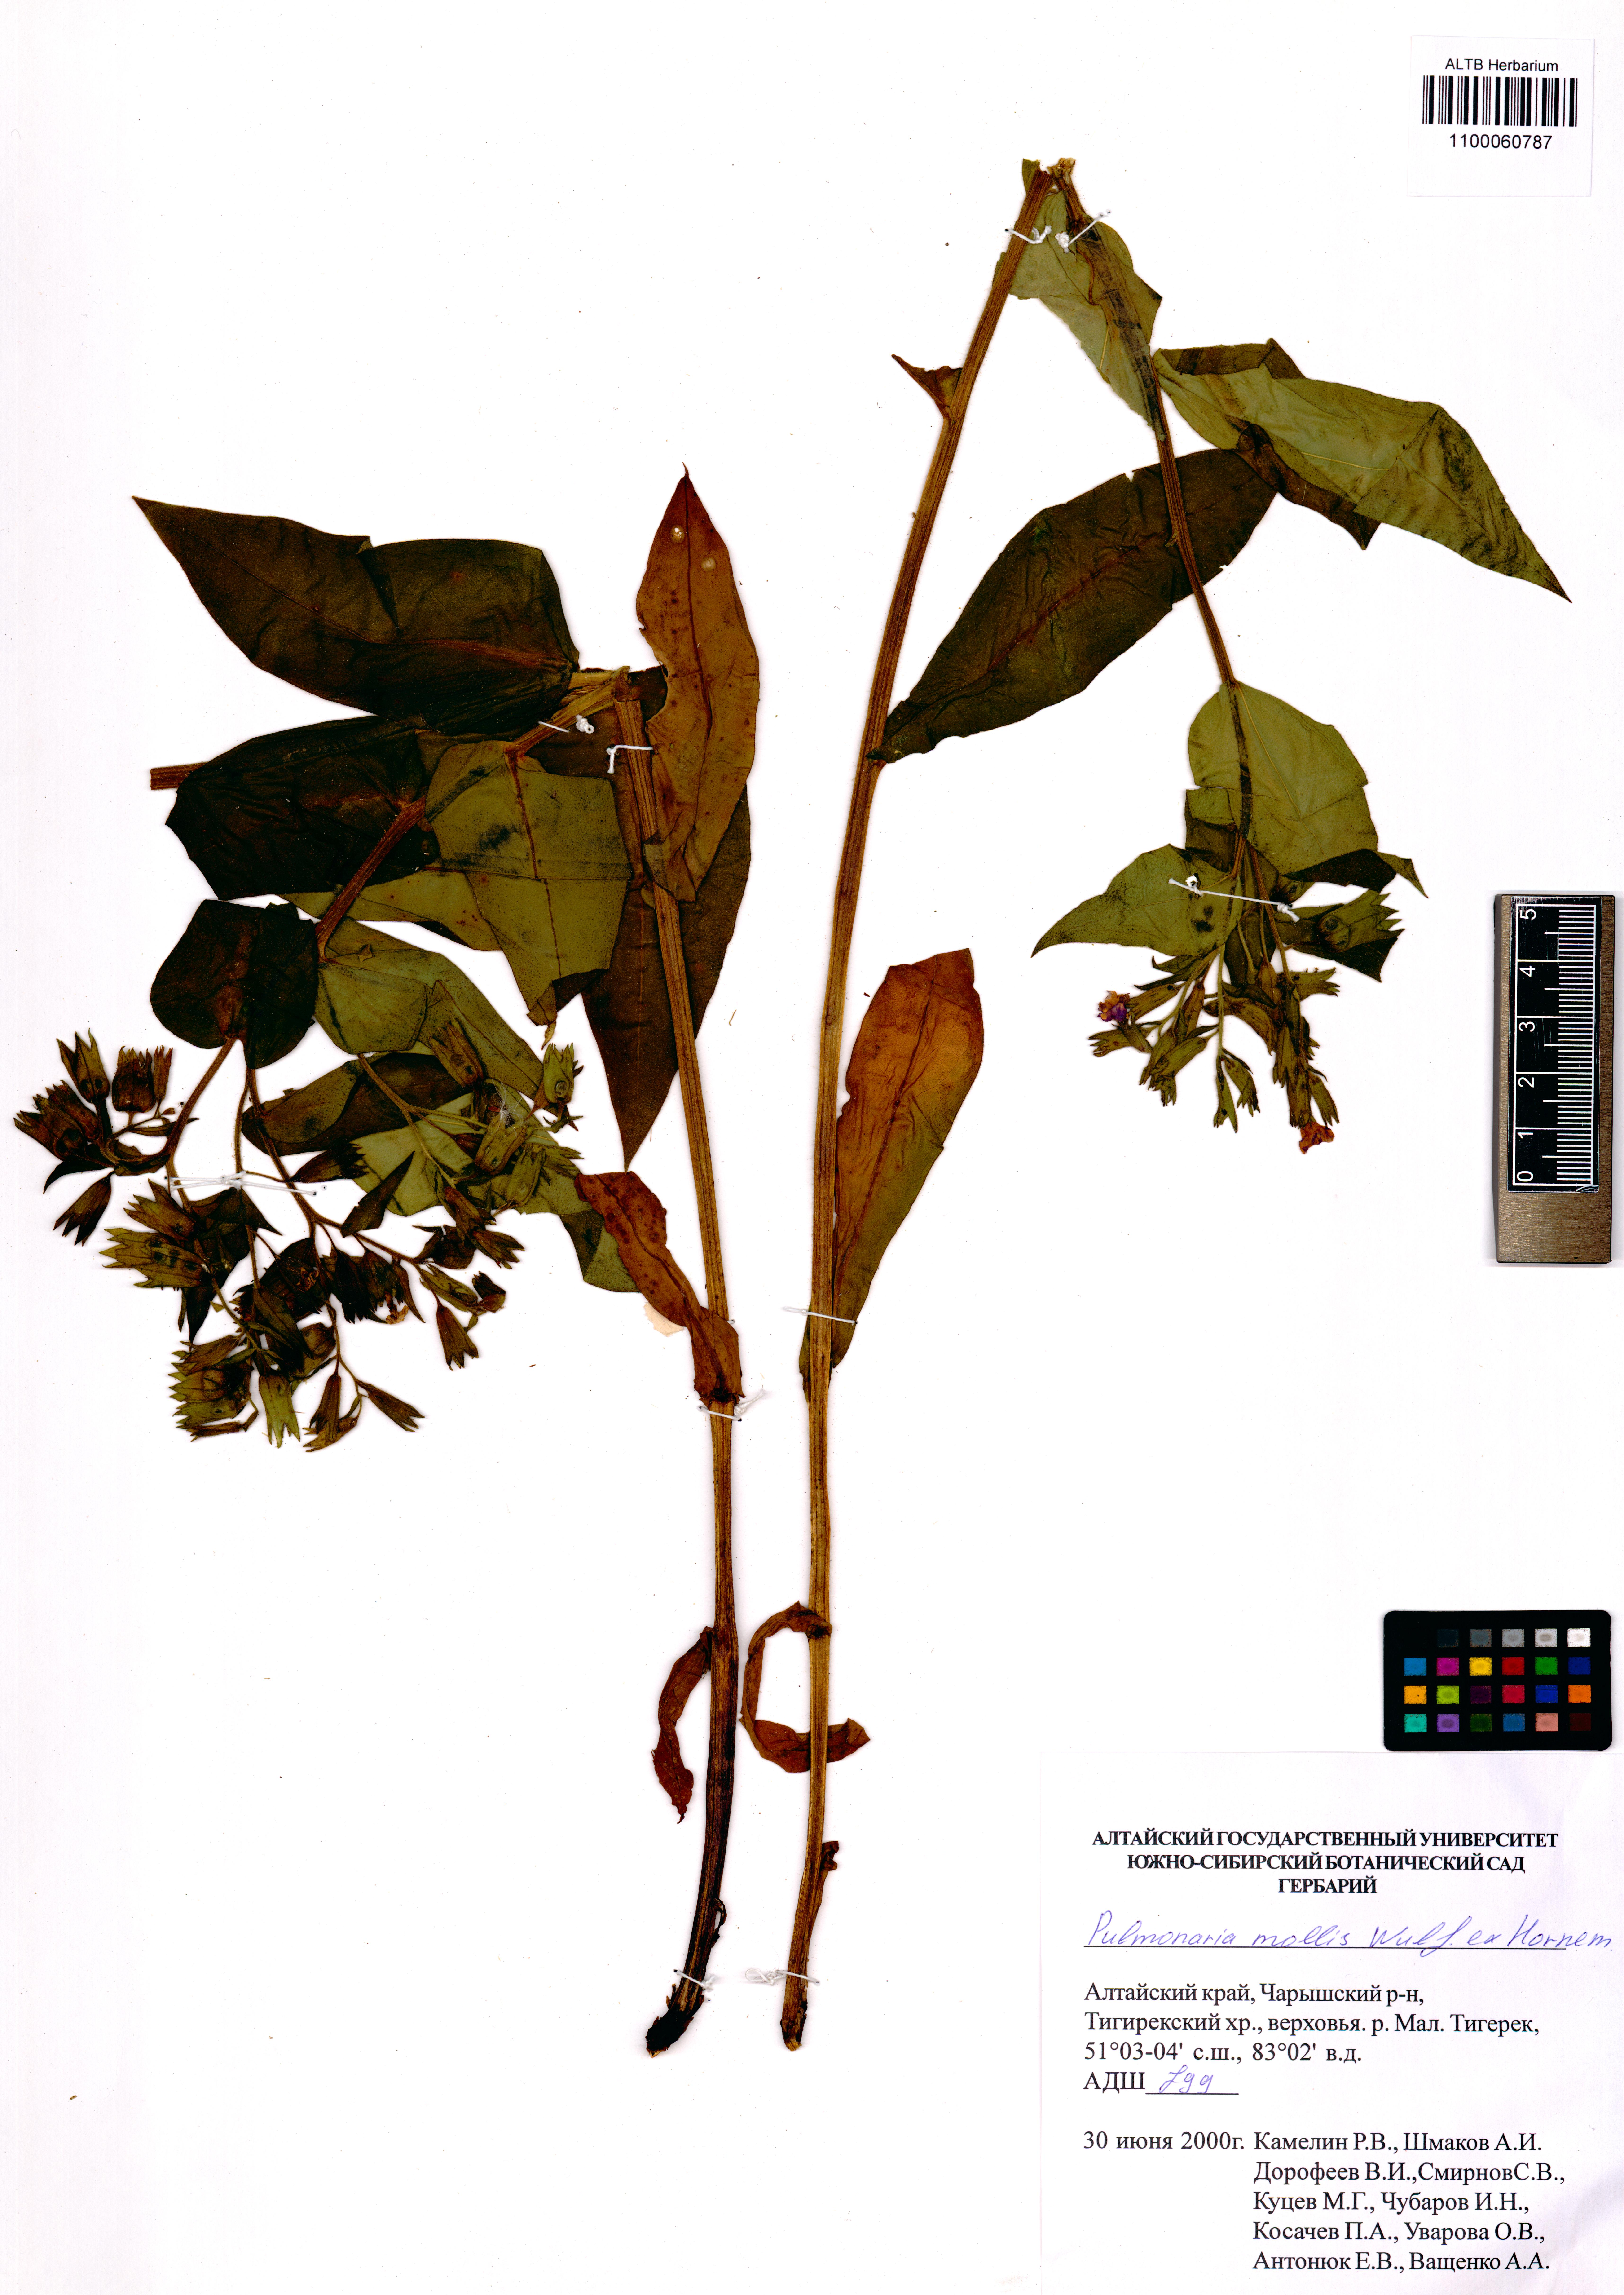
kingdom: Plantae
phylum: Tracheophyta
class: Magnoliopsida
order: Boraginales
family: Boraginaceae
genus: Pulmonaria
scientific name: Pulmonaria mollis
